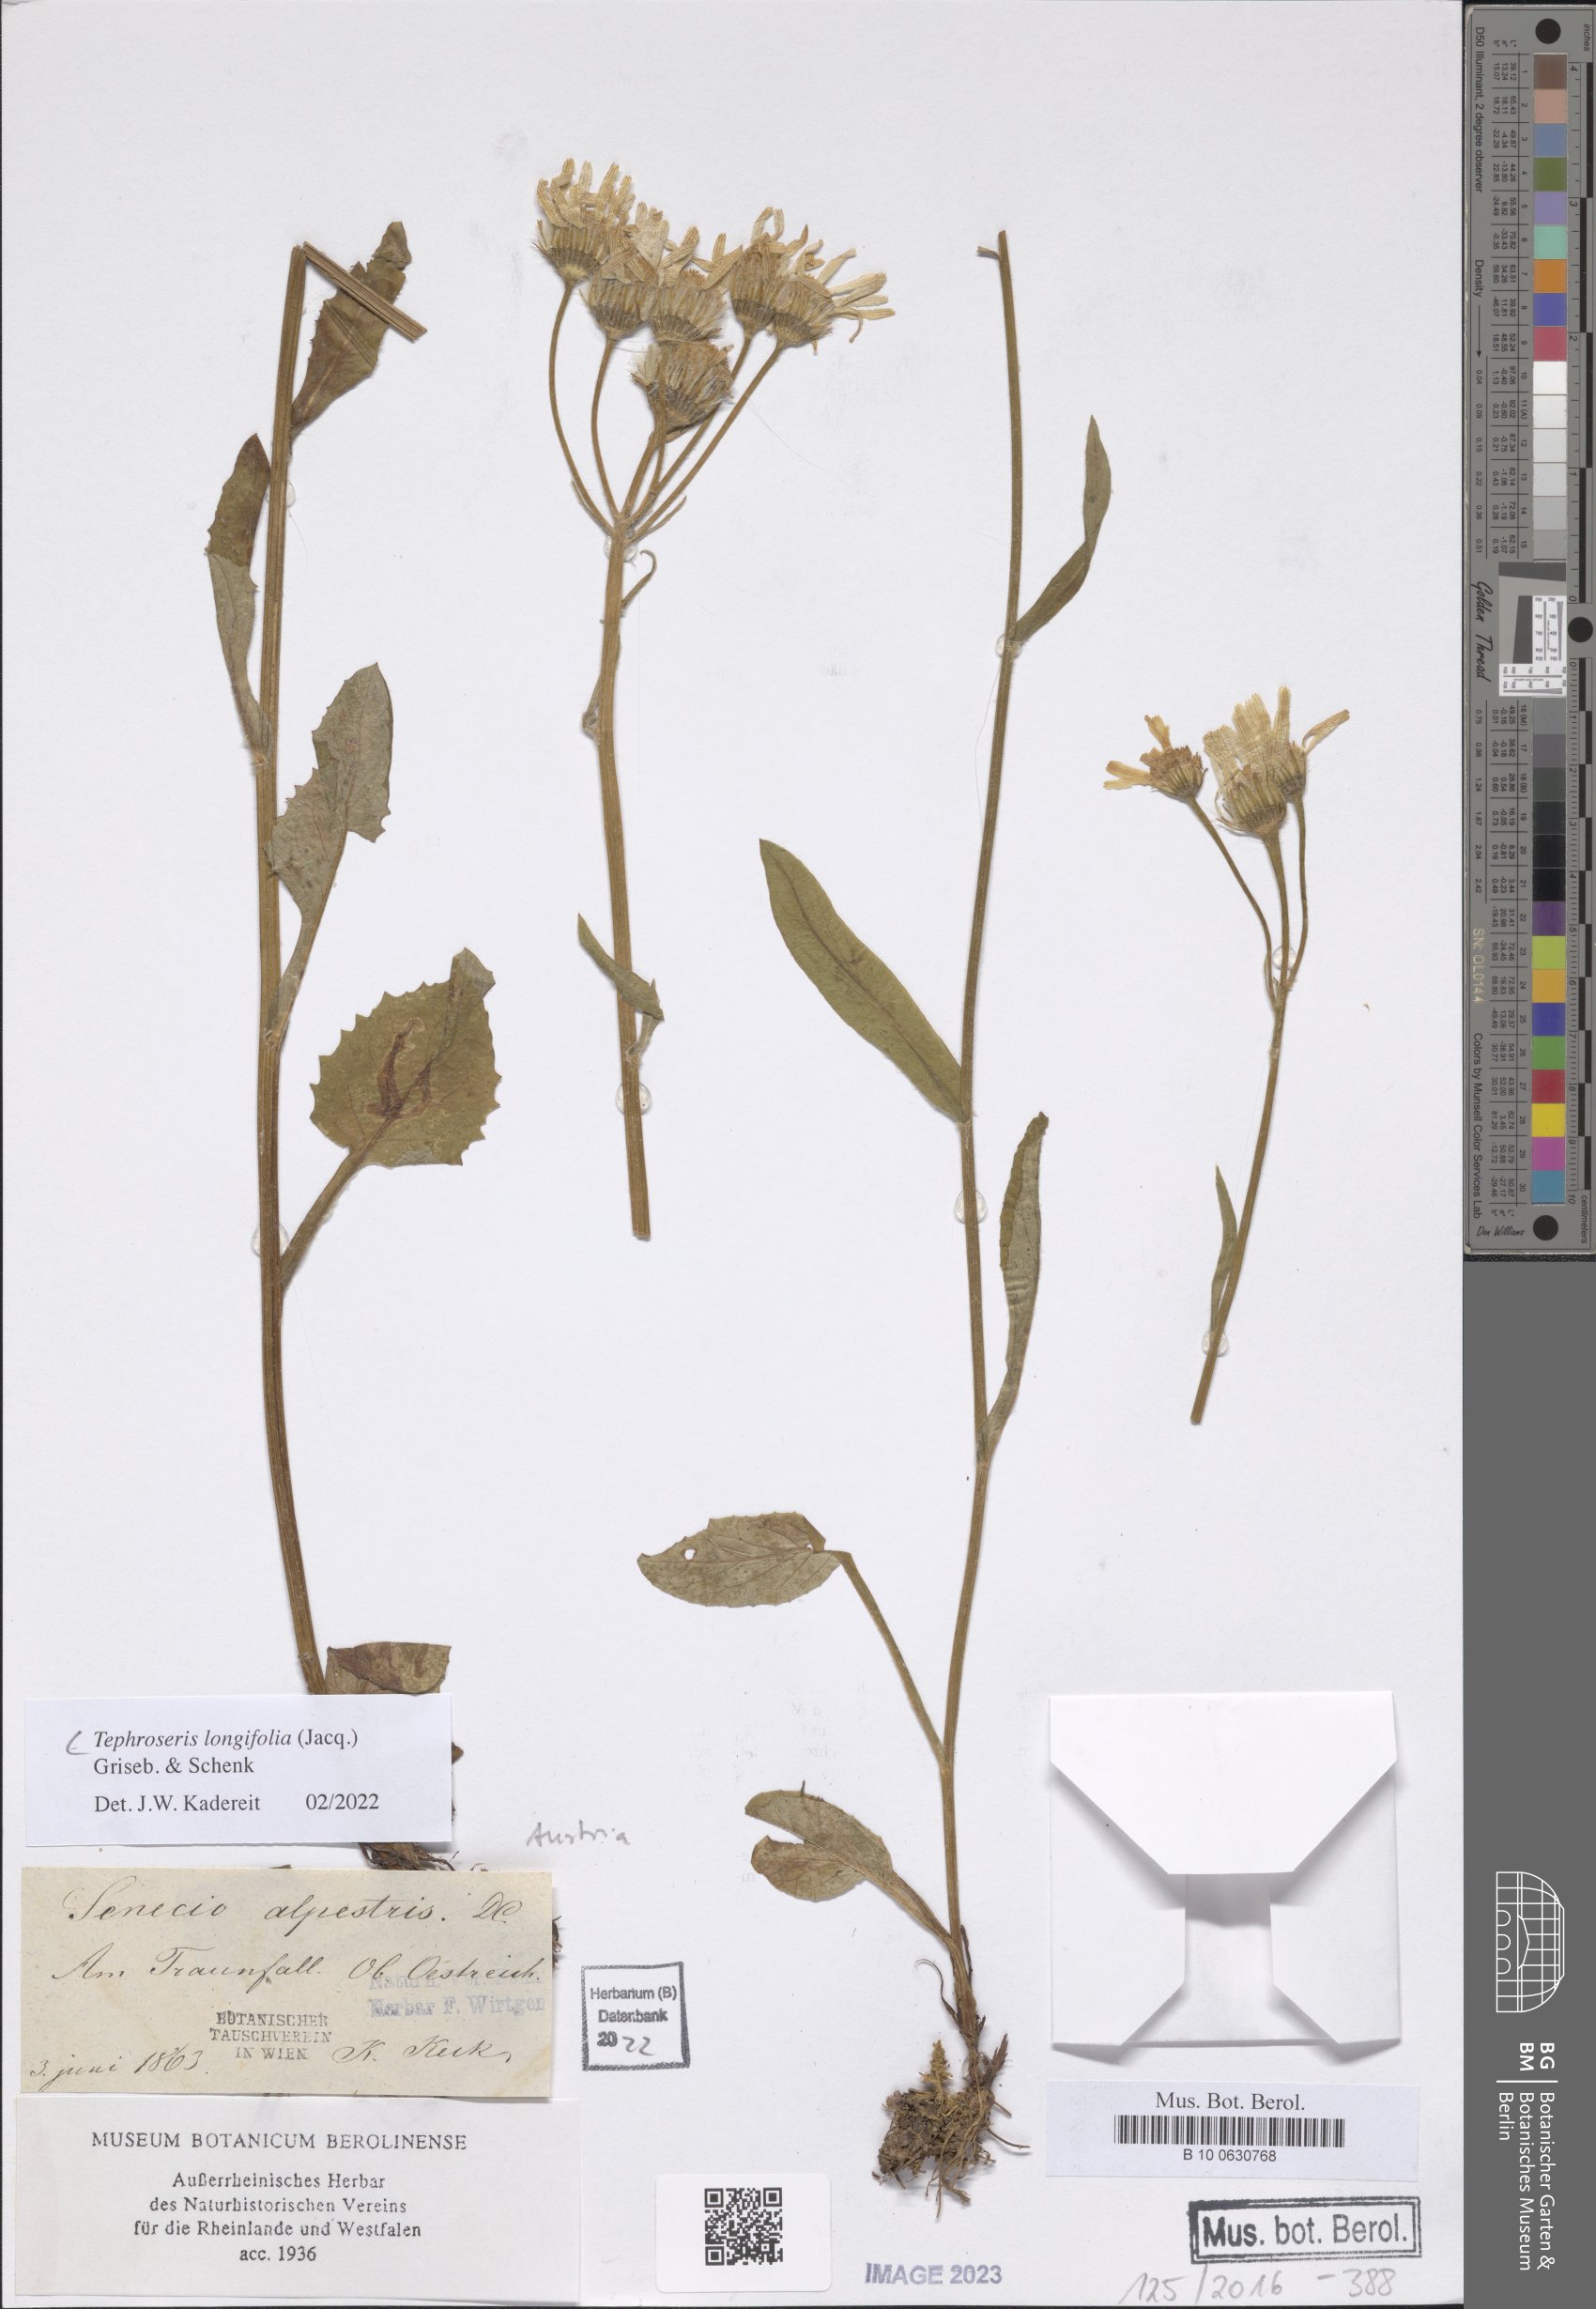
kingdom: Plantae
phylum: Tracheophyta
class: Magnoliopsida
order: Asterales
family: Asteraceae
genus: Tephroseris
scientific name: Tephroseris longifolia
